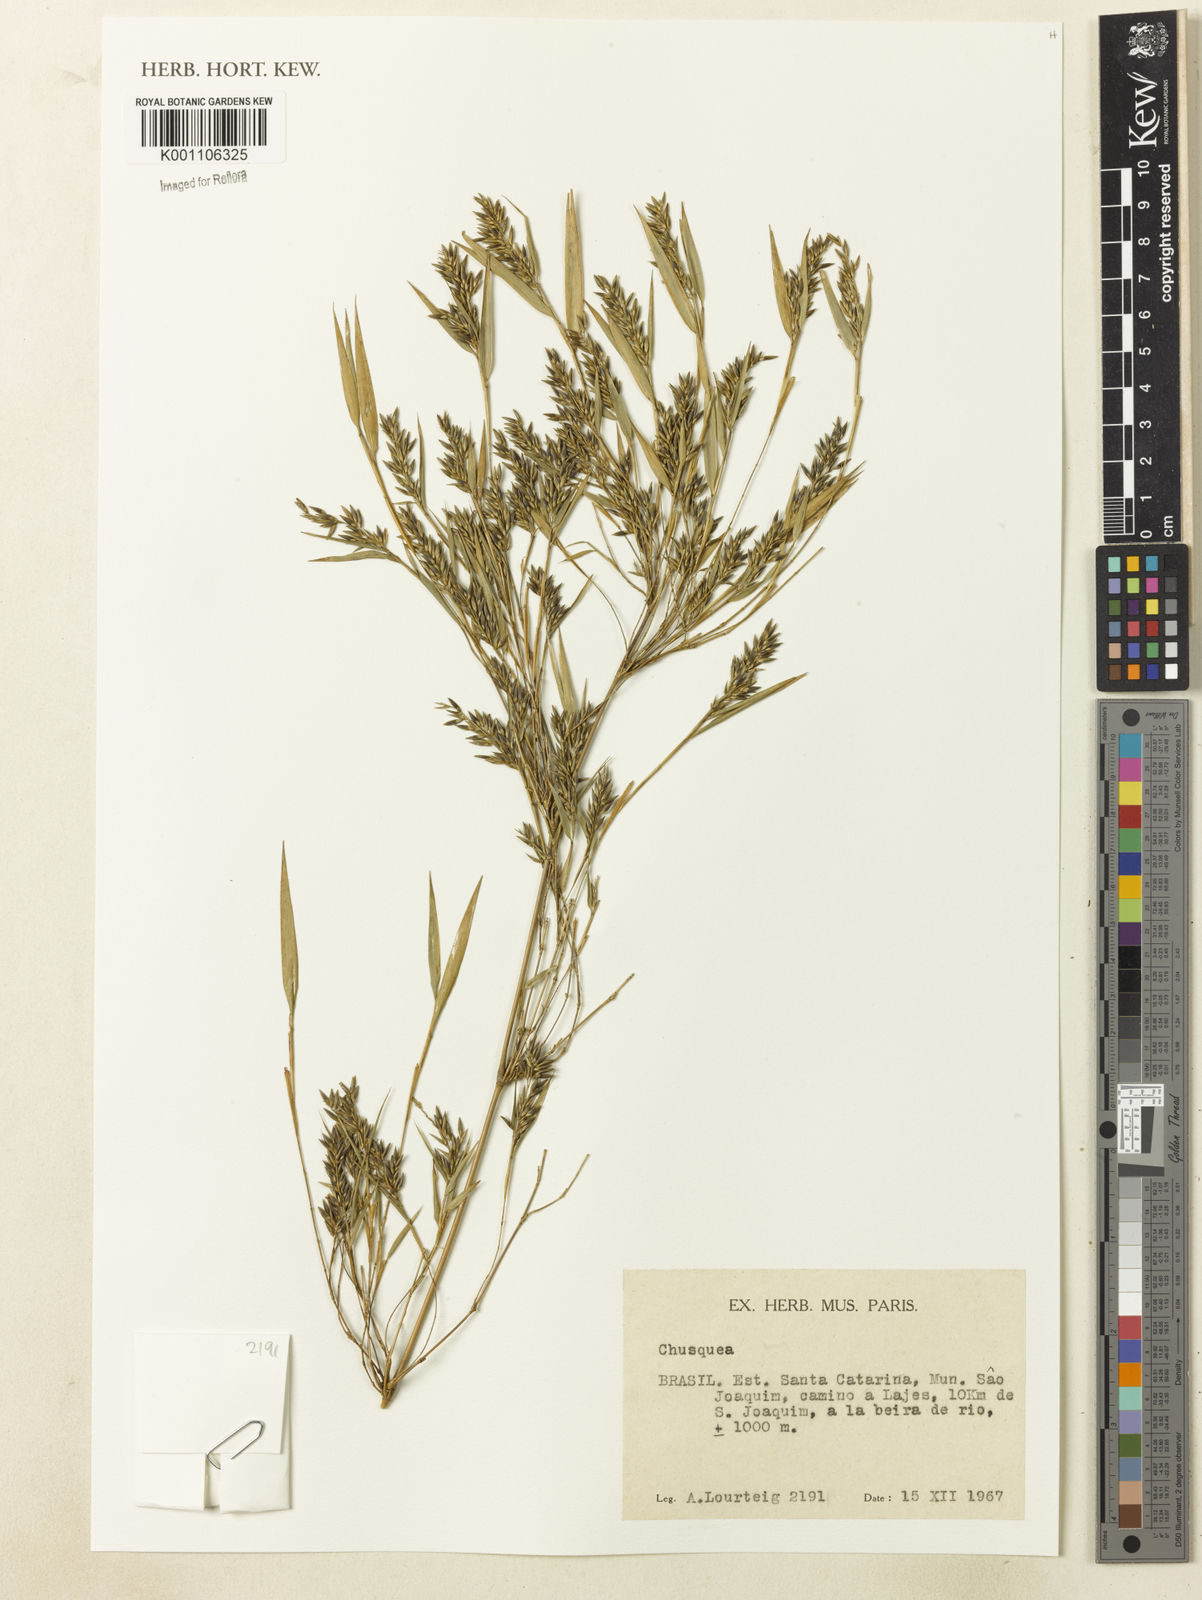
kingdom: Plantae
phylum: Tracheophyta
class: Liliopsida
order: Poales
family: Poaceae
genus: Chusquea
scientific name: Chusquea
